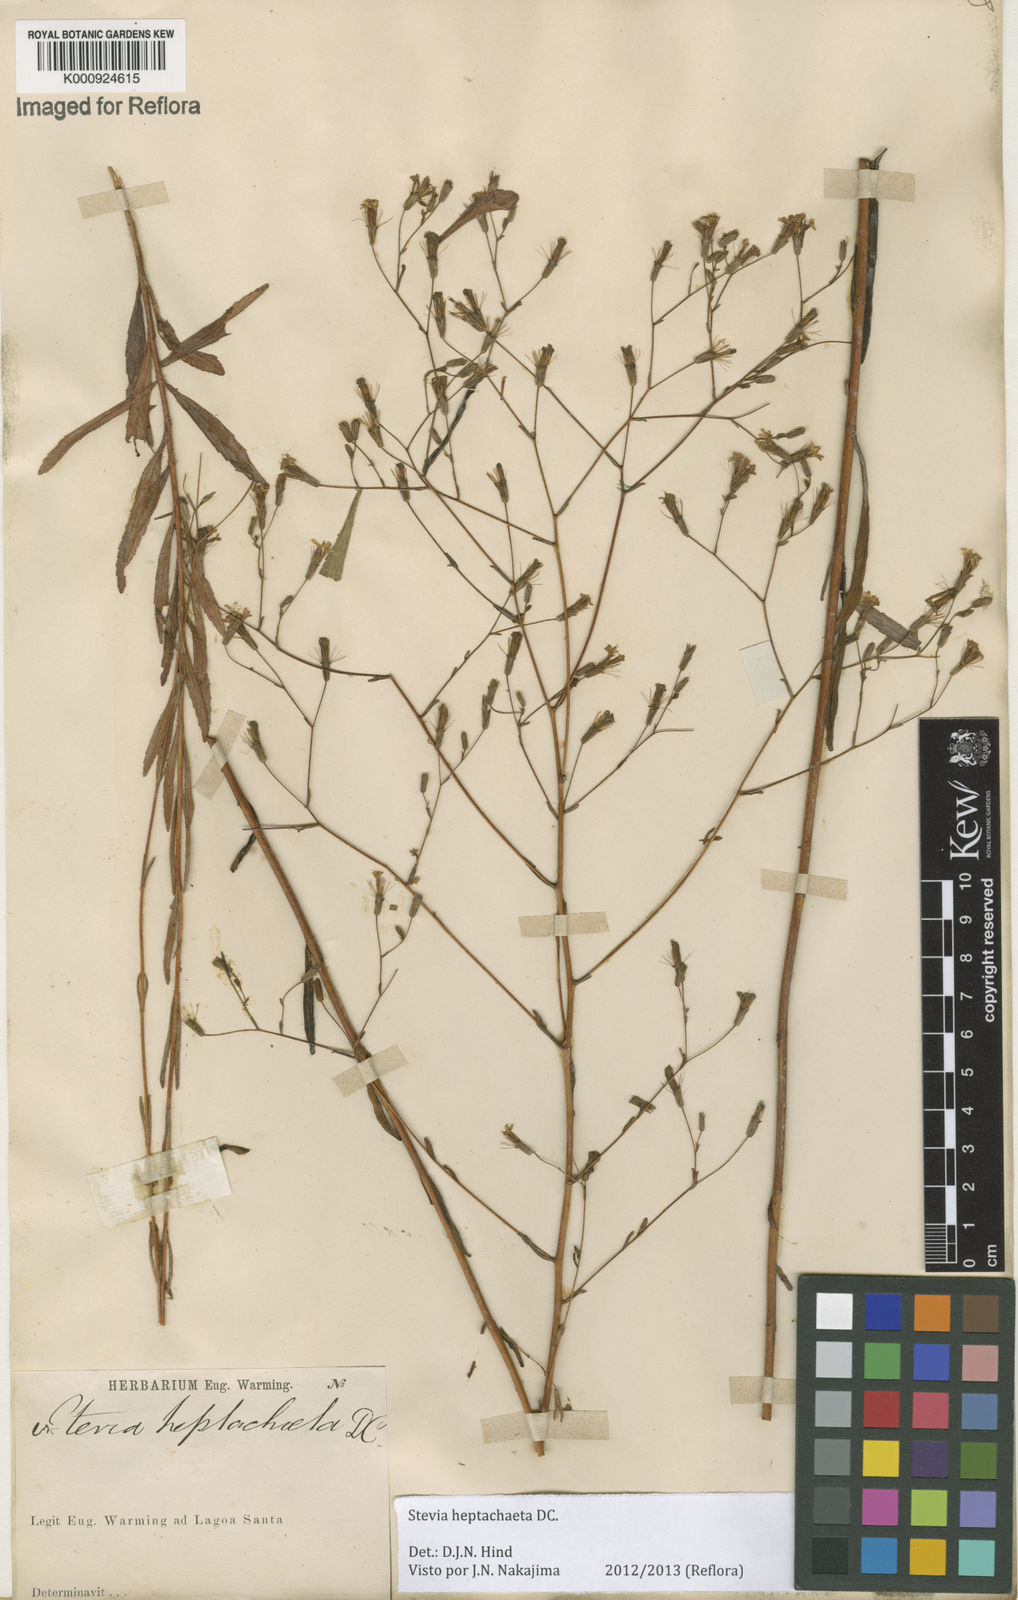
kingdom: Plantae
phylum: Tracheophyta
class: Magnoliopsida
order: Asterales
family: Asteraceae
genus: Stevia
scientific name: Stevia heptachaeta
